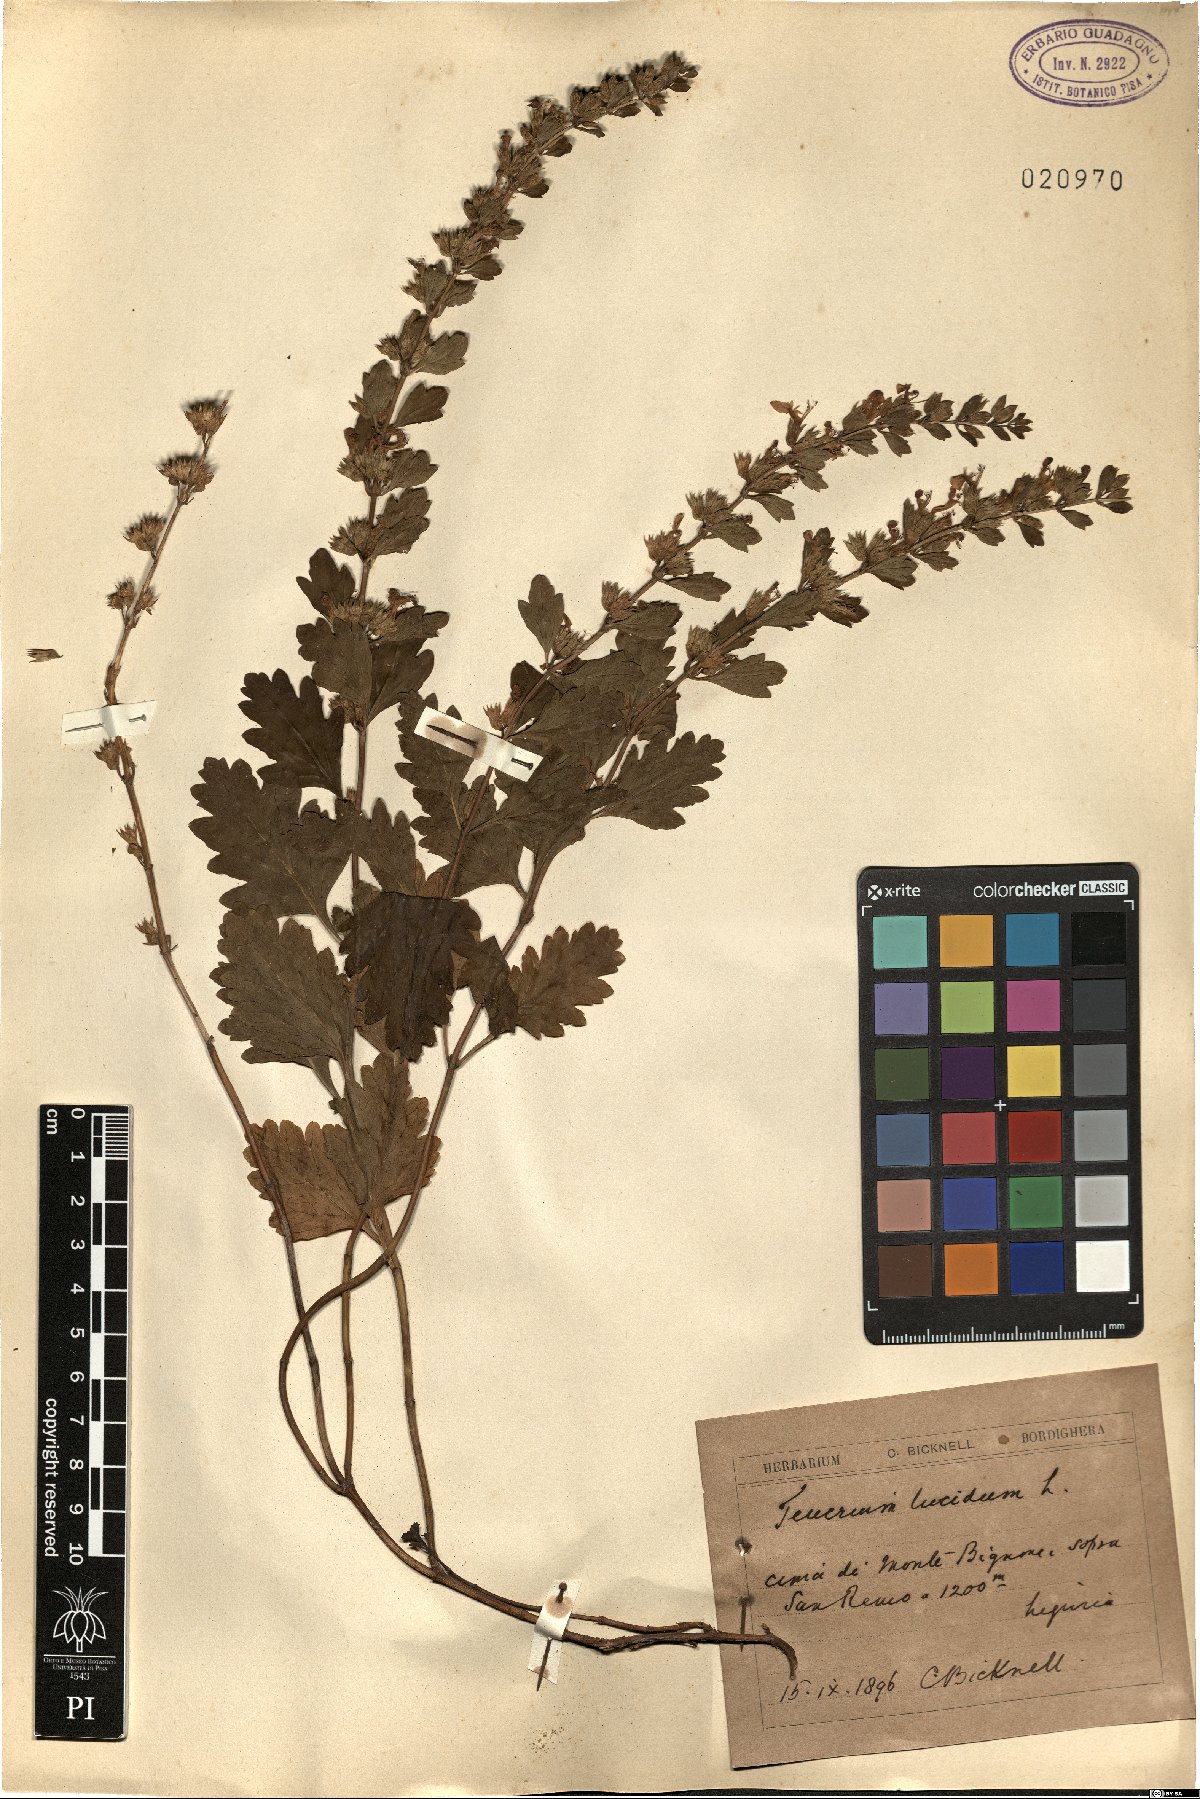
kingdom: Plantae
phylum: Tracheophyta
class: Magnoliopsida
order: Lamiales
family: Lamiaceae
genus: Teucrium
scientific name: Teucrium lucidum
